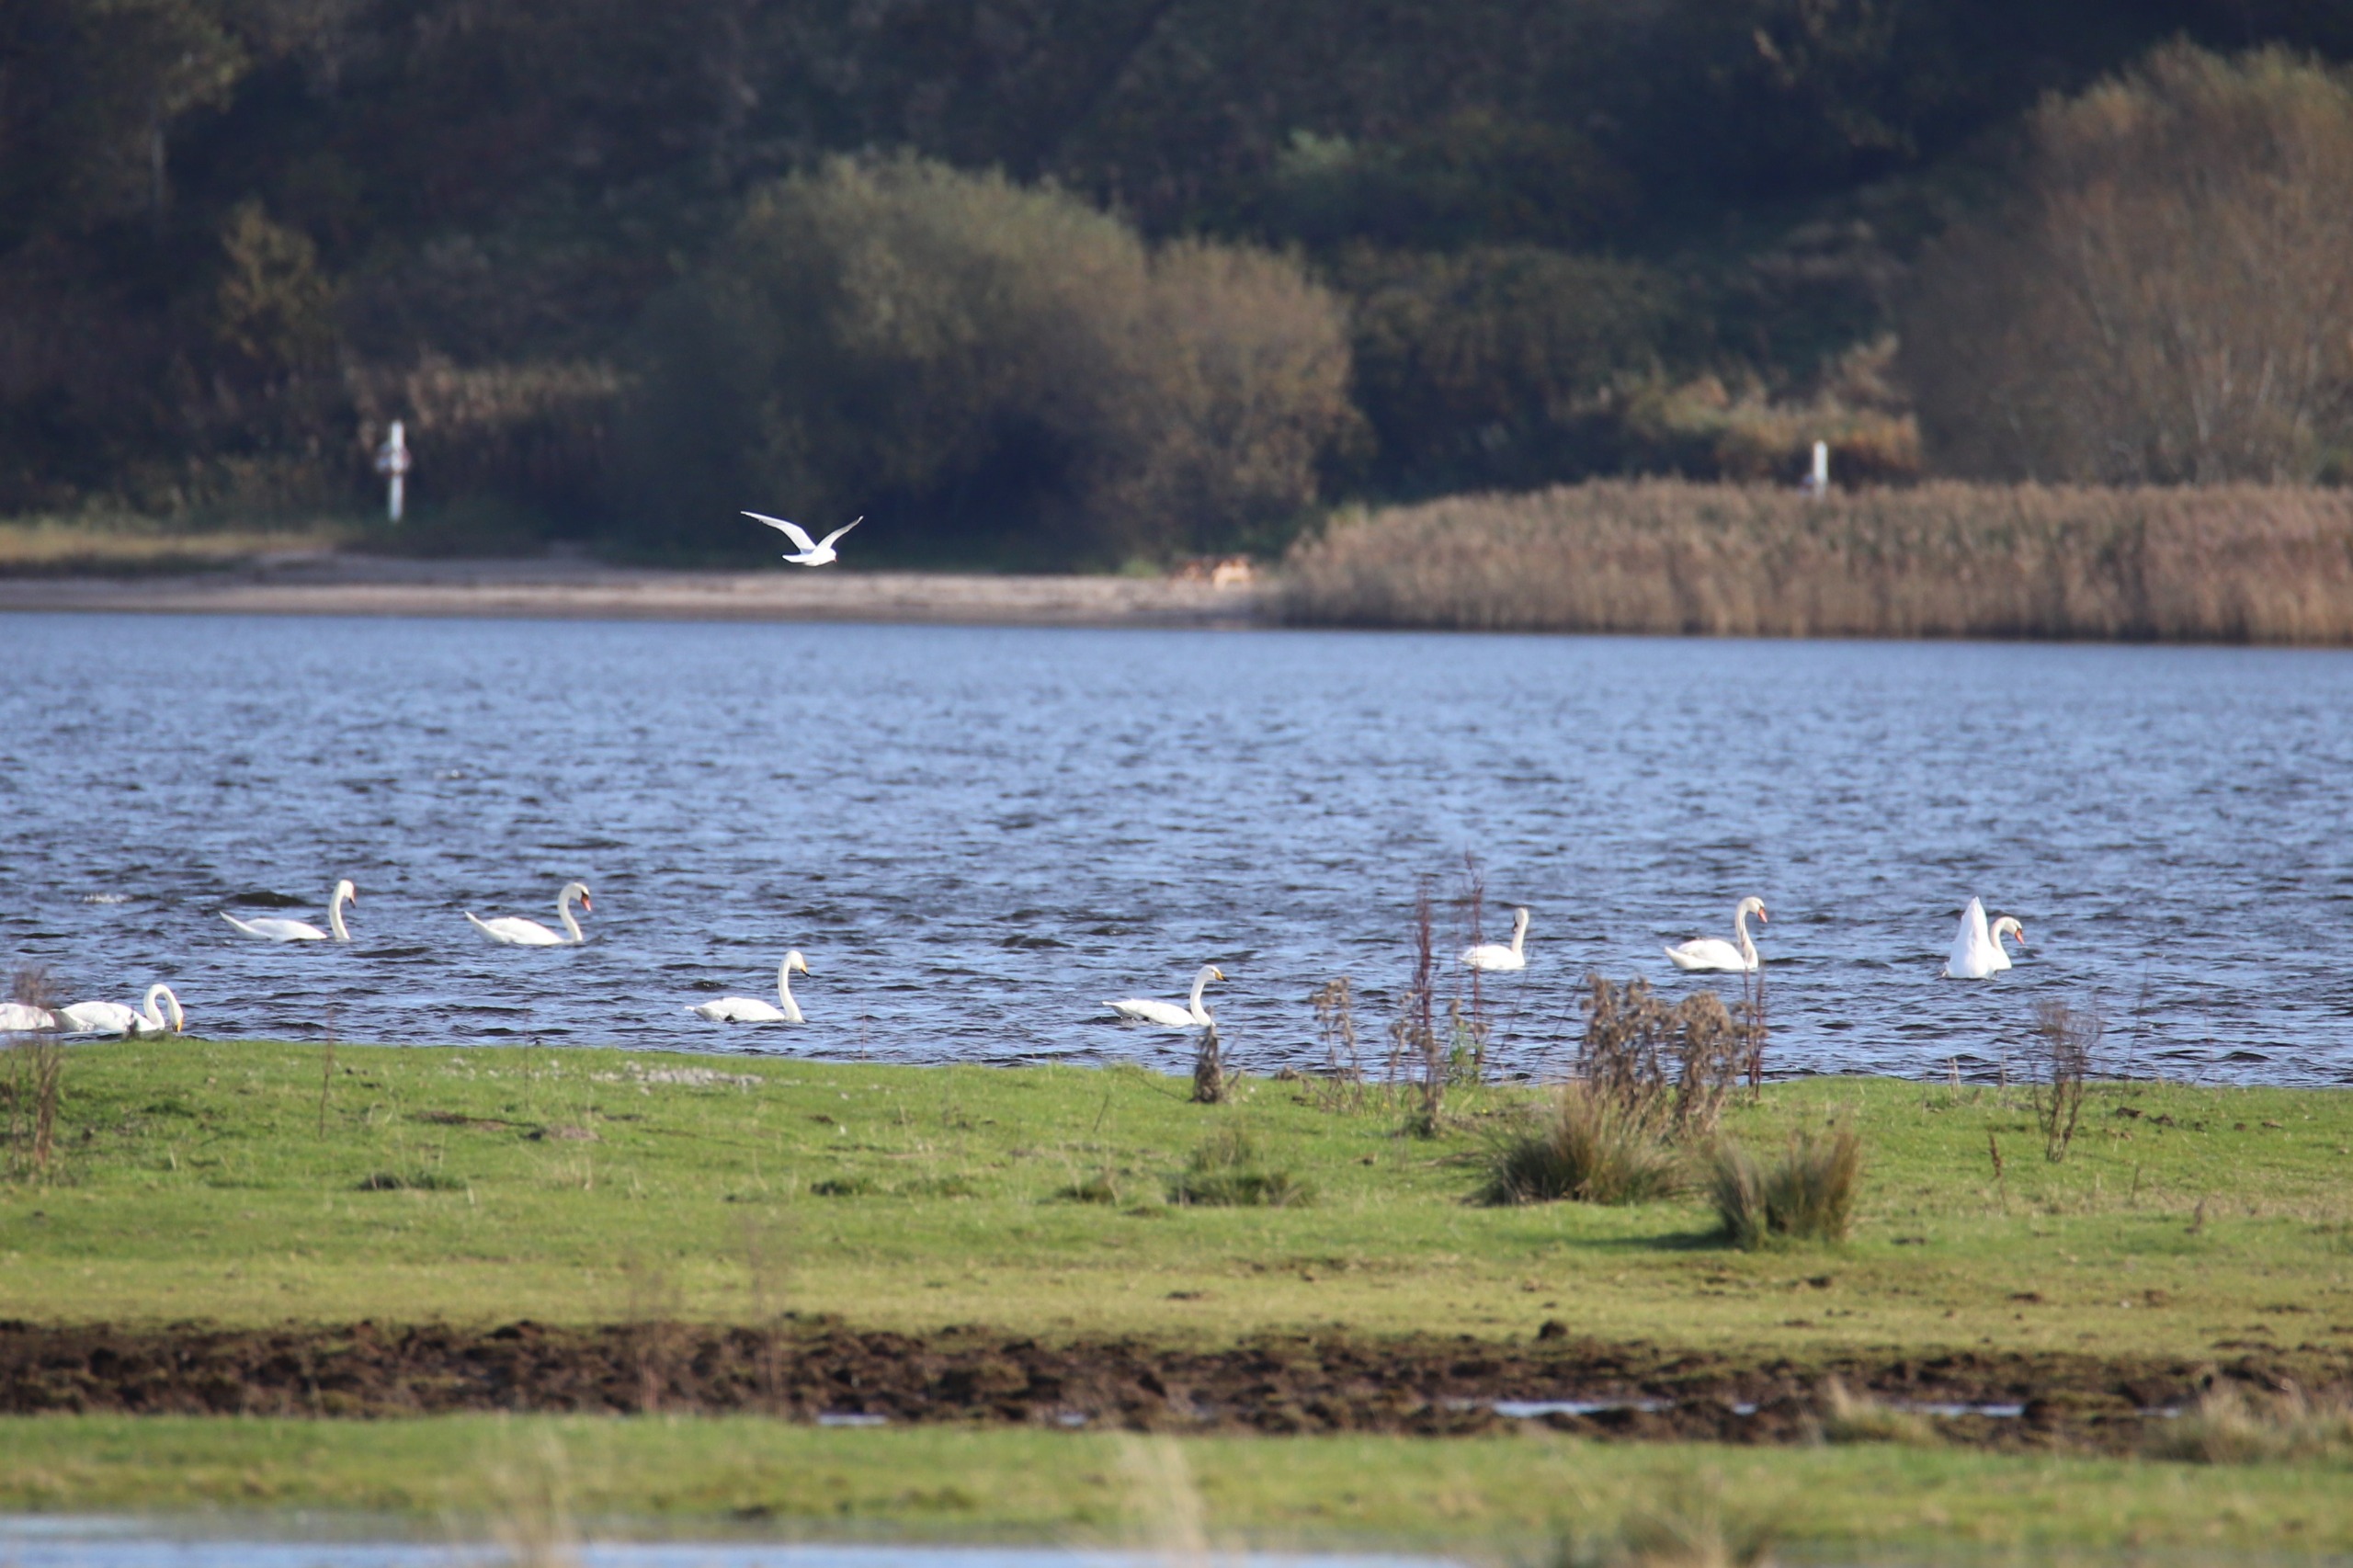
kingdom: Animalia
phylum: Chordata
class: Aves
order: Anseriformes
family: Anatidae
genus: Cygnus
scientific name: Cygnus cygnus
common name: Sangsvane
